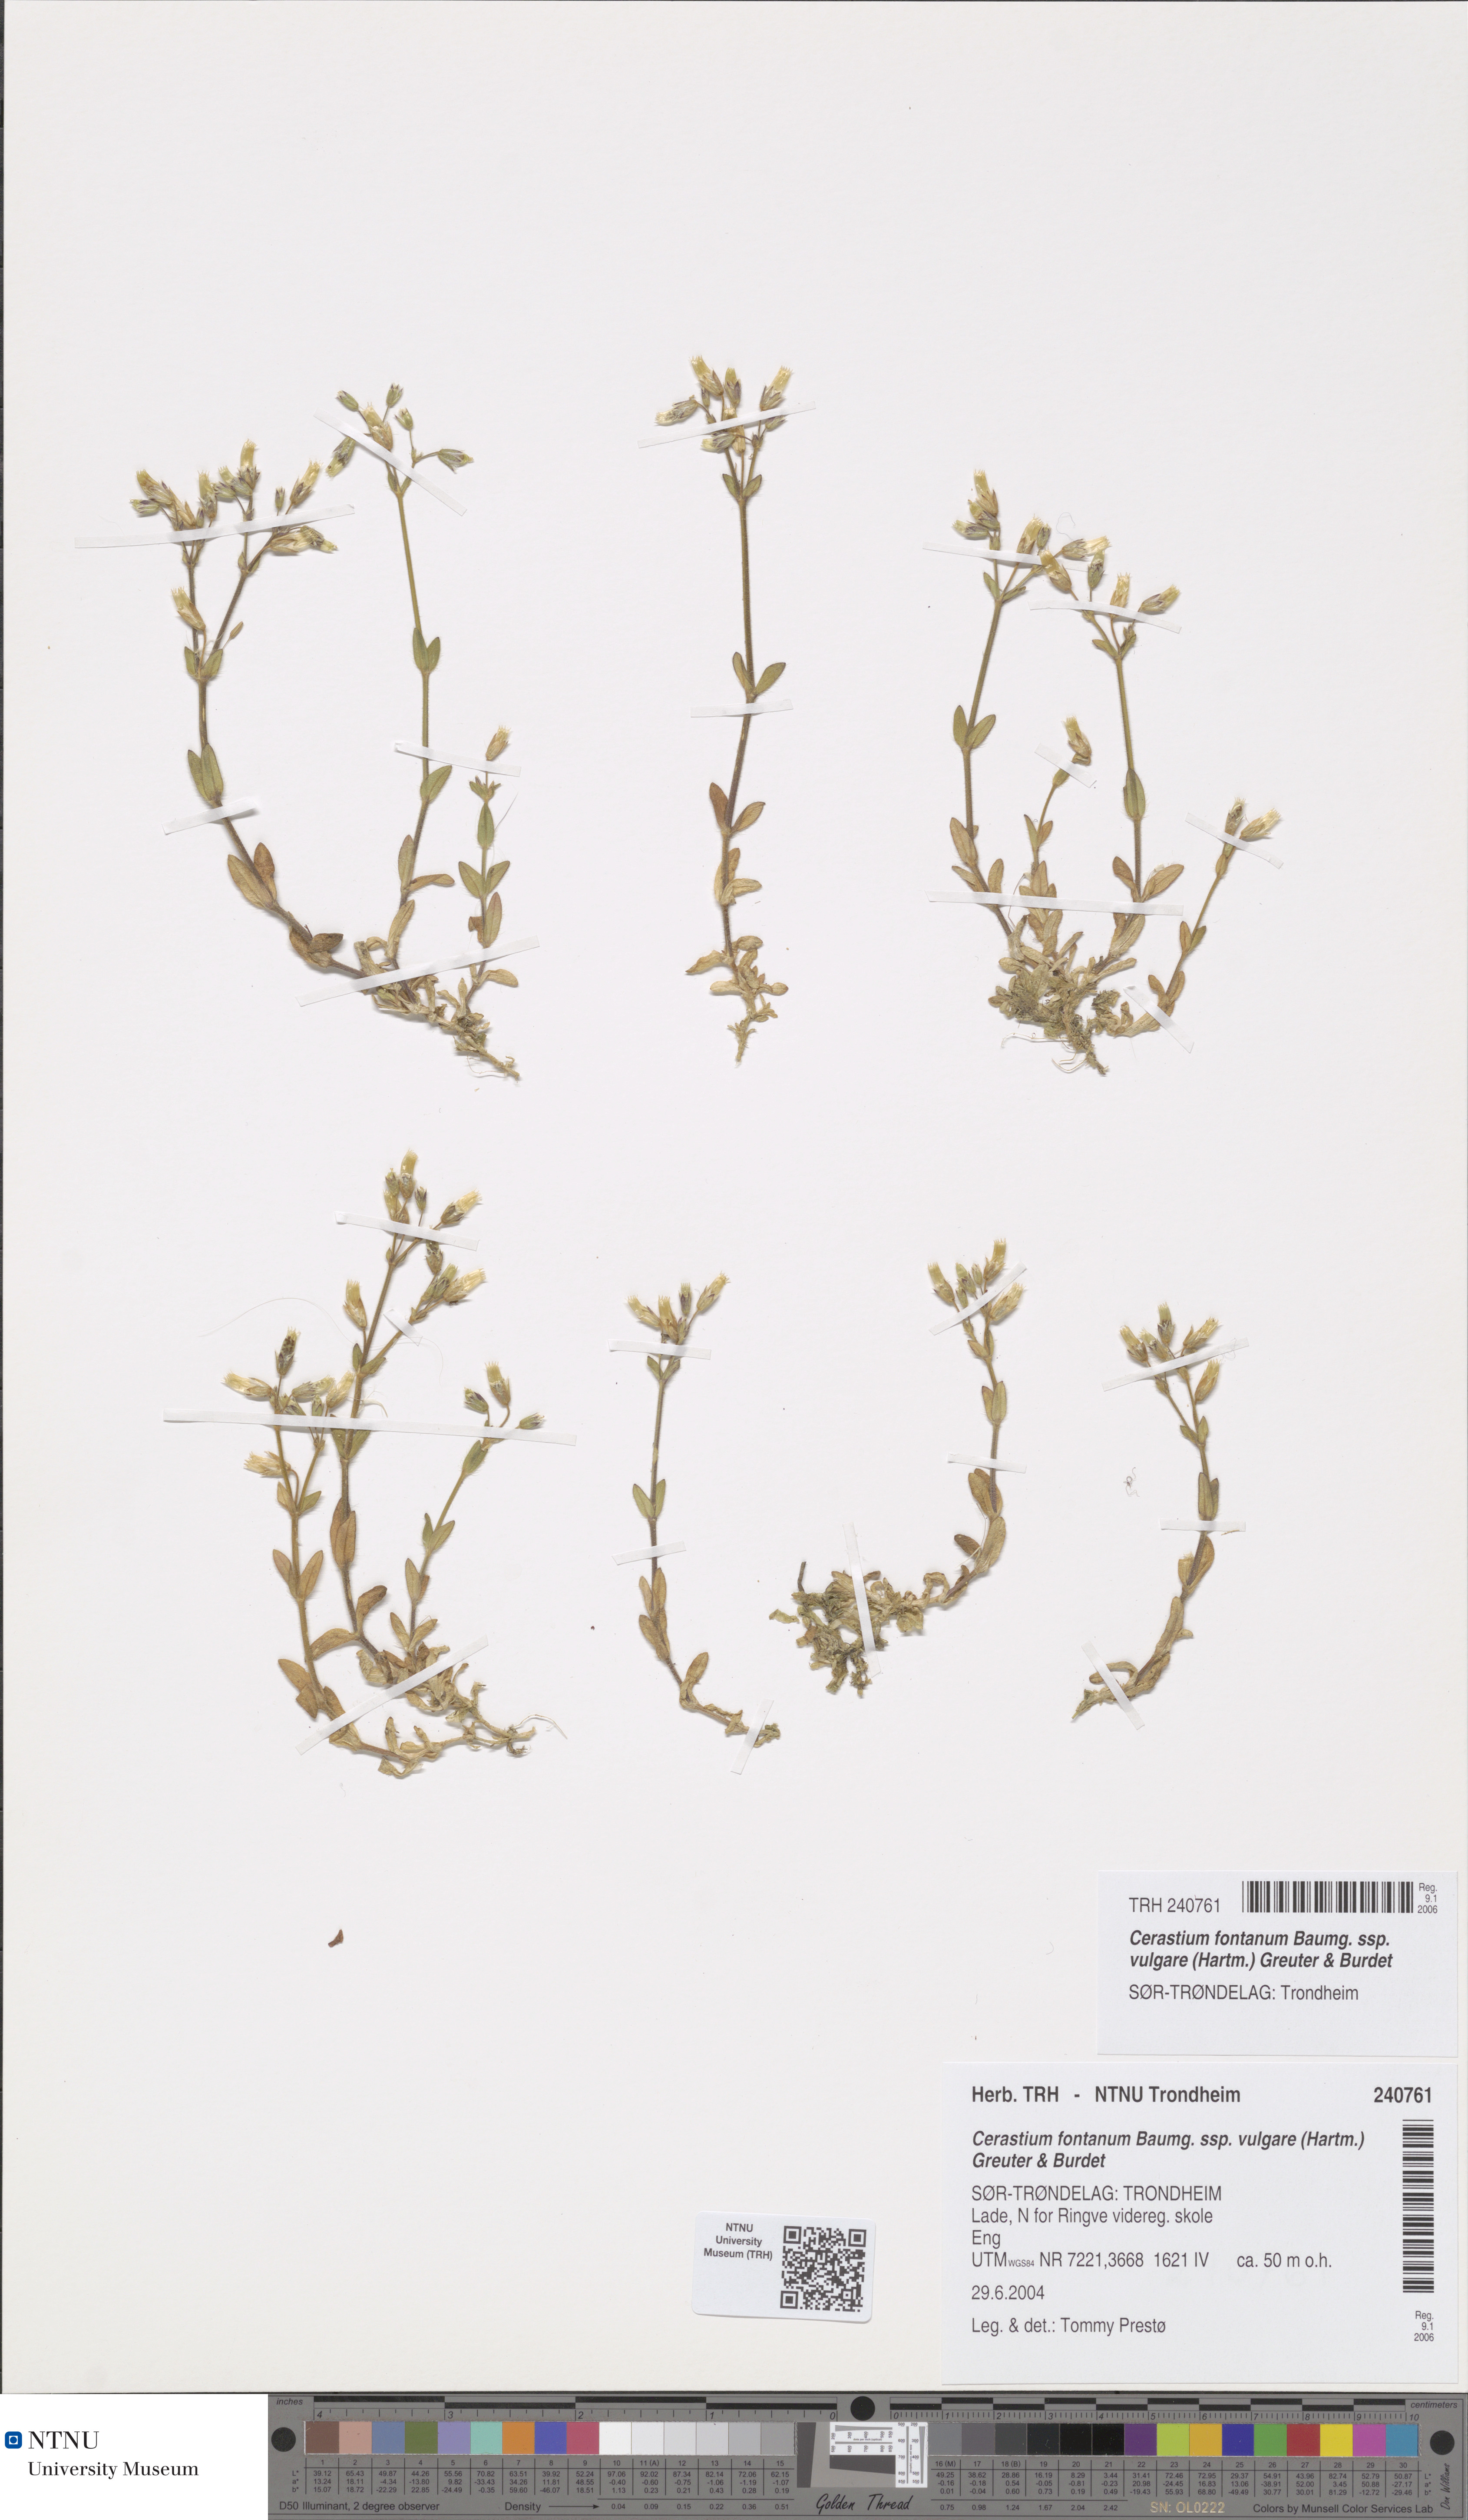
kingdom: Plantae
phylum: Tracheophyta
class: Magnoliopsida
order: Caryophyllales
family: Caryophyllaceae
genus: Cerastium
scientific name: Cerastium holosteoides
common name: Big chickweed
